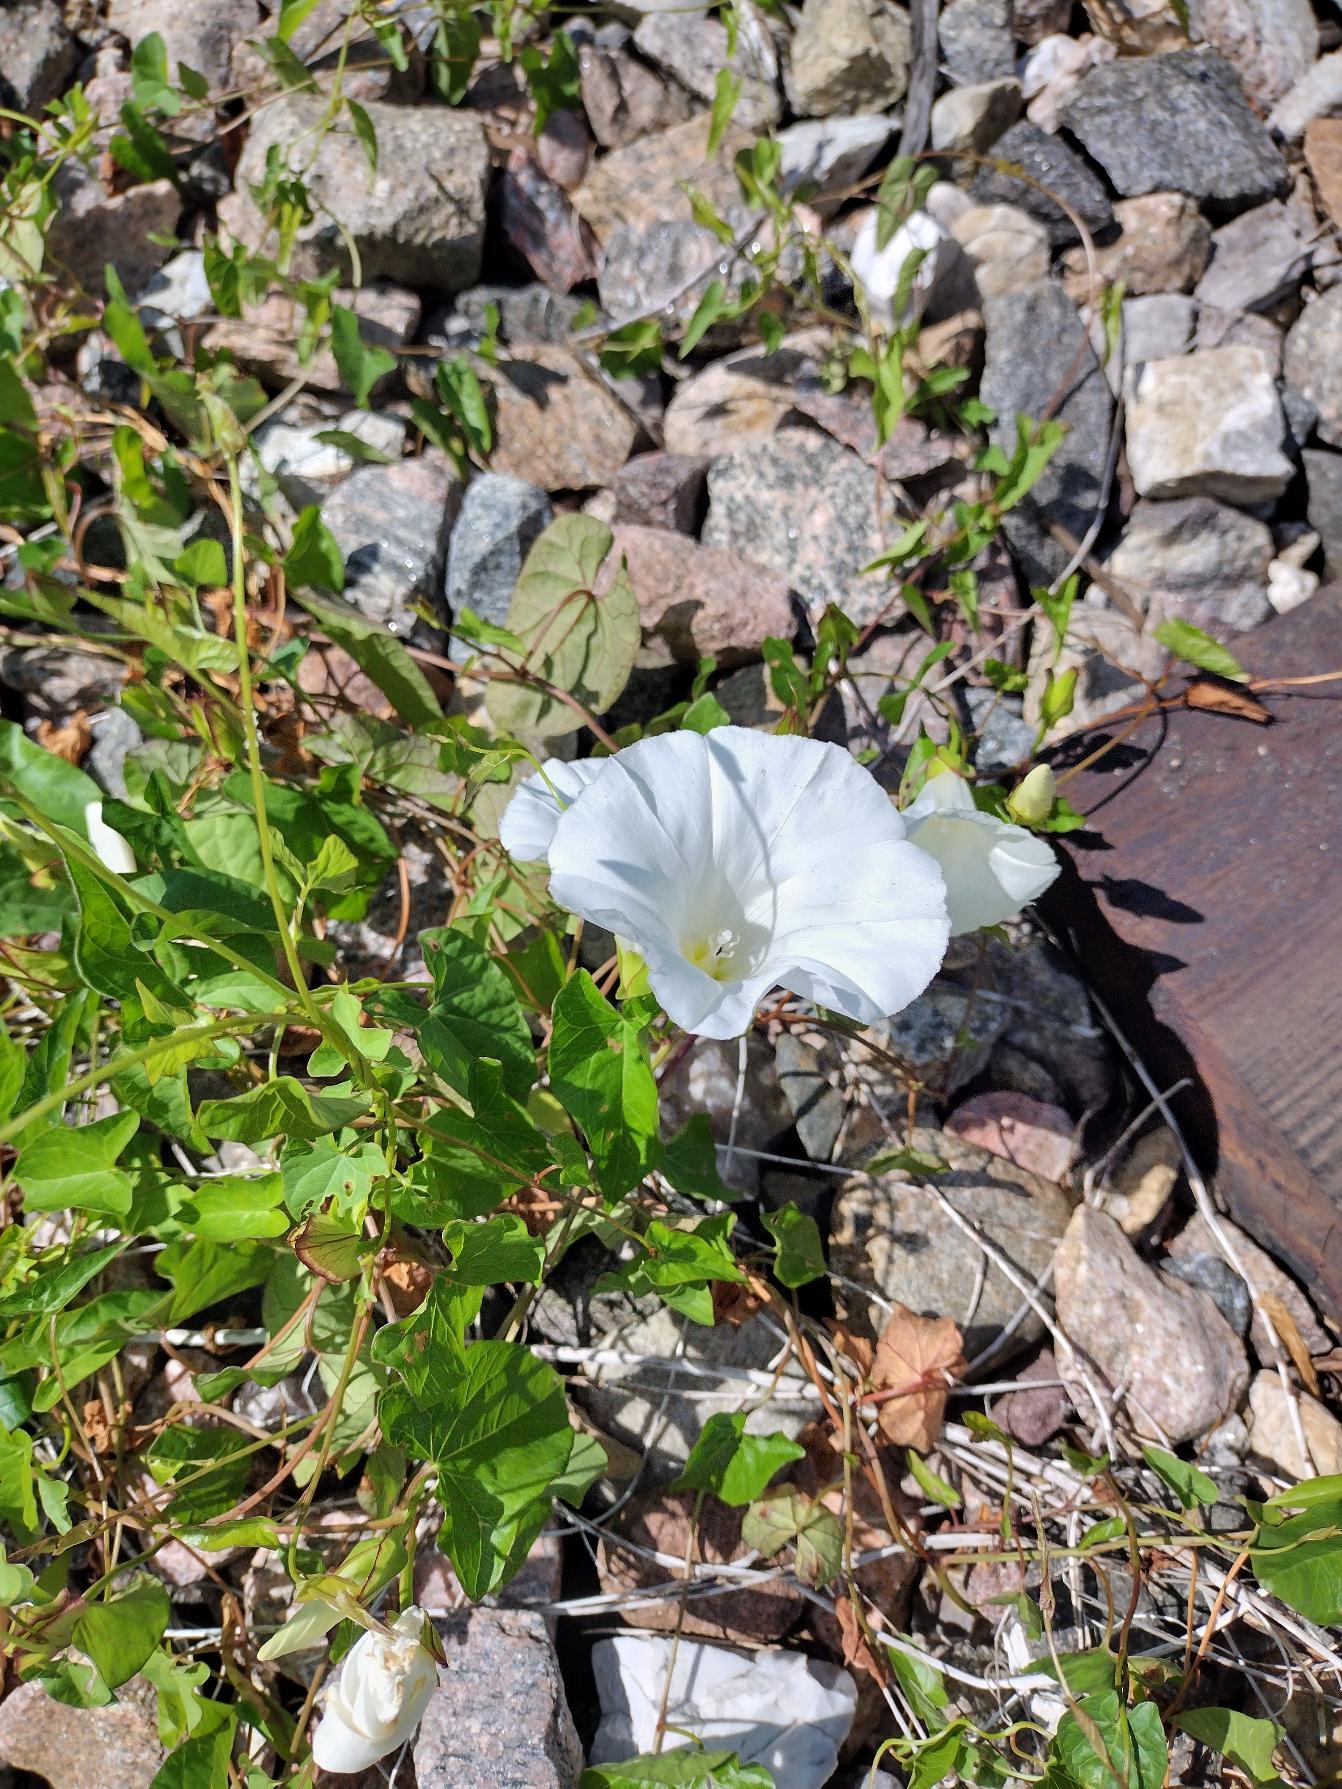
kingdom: Plantae
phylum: Tracheophyta
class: Magnoliopsida
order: Solanales
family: Convolvulaceae
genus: Calystegia
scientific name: Calystegia sepium
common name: Gærde-snerle
